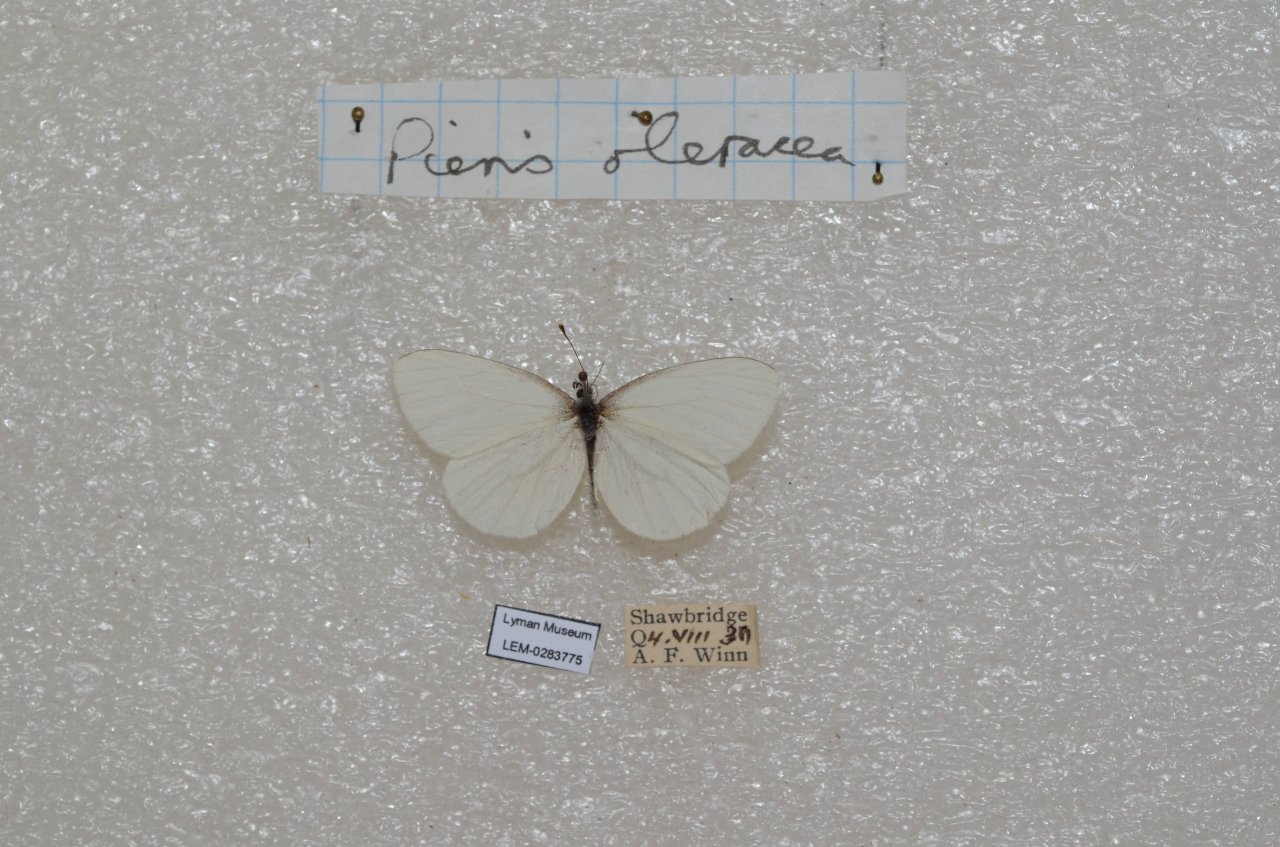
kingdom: Animalia
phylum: Arthropoda
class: Insecta
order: Lepidoptera
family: Pieridae
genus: Pieris
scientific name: Pieris oleracea
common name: Mustard White
